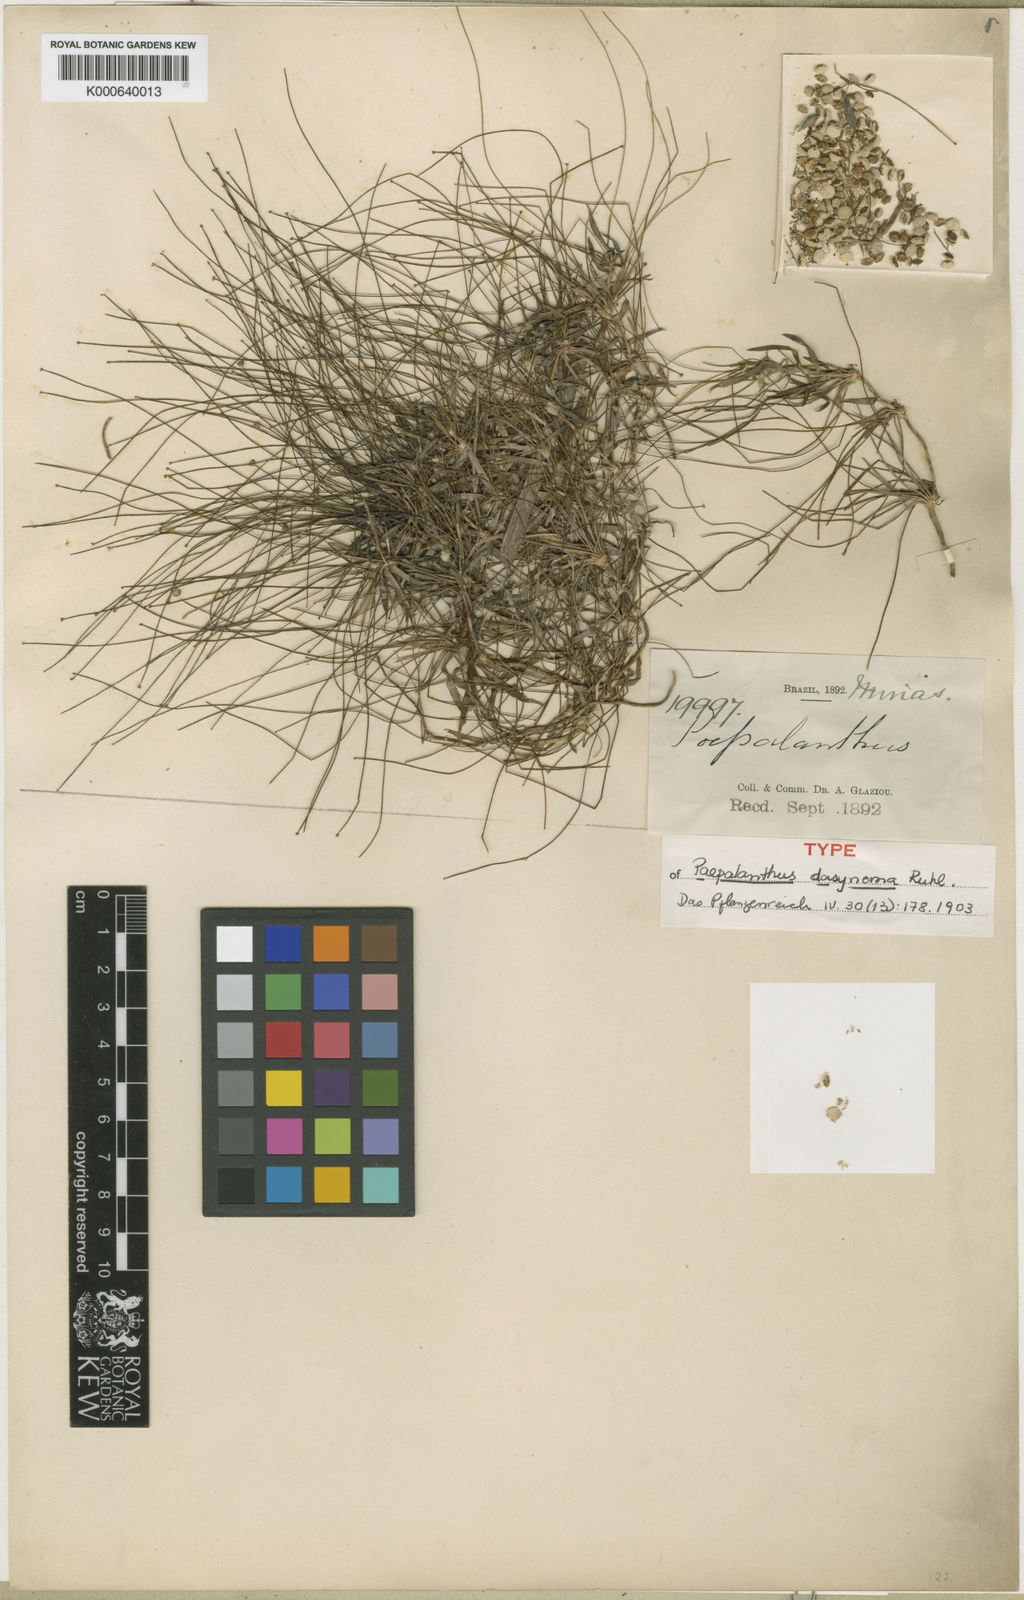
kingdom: Plantae
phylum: Tracheophyta
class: Liliopsida
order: Poales
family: Eriocaulaceae
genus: Paepalanthus
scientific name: Paepalanthus dasynema
